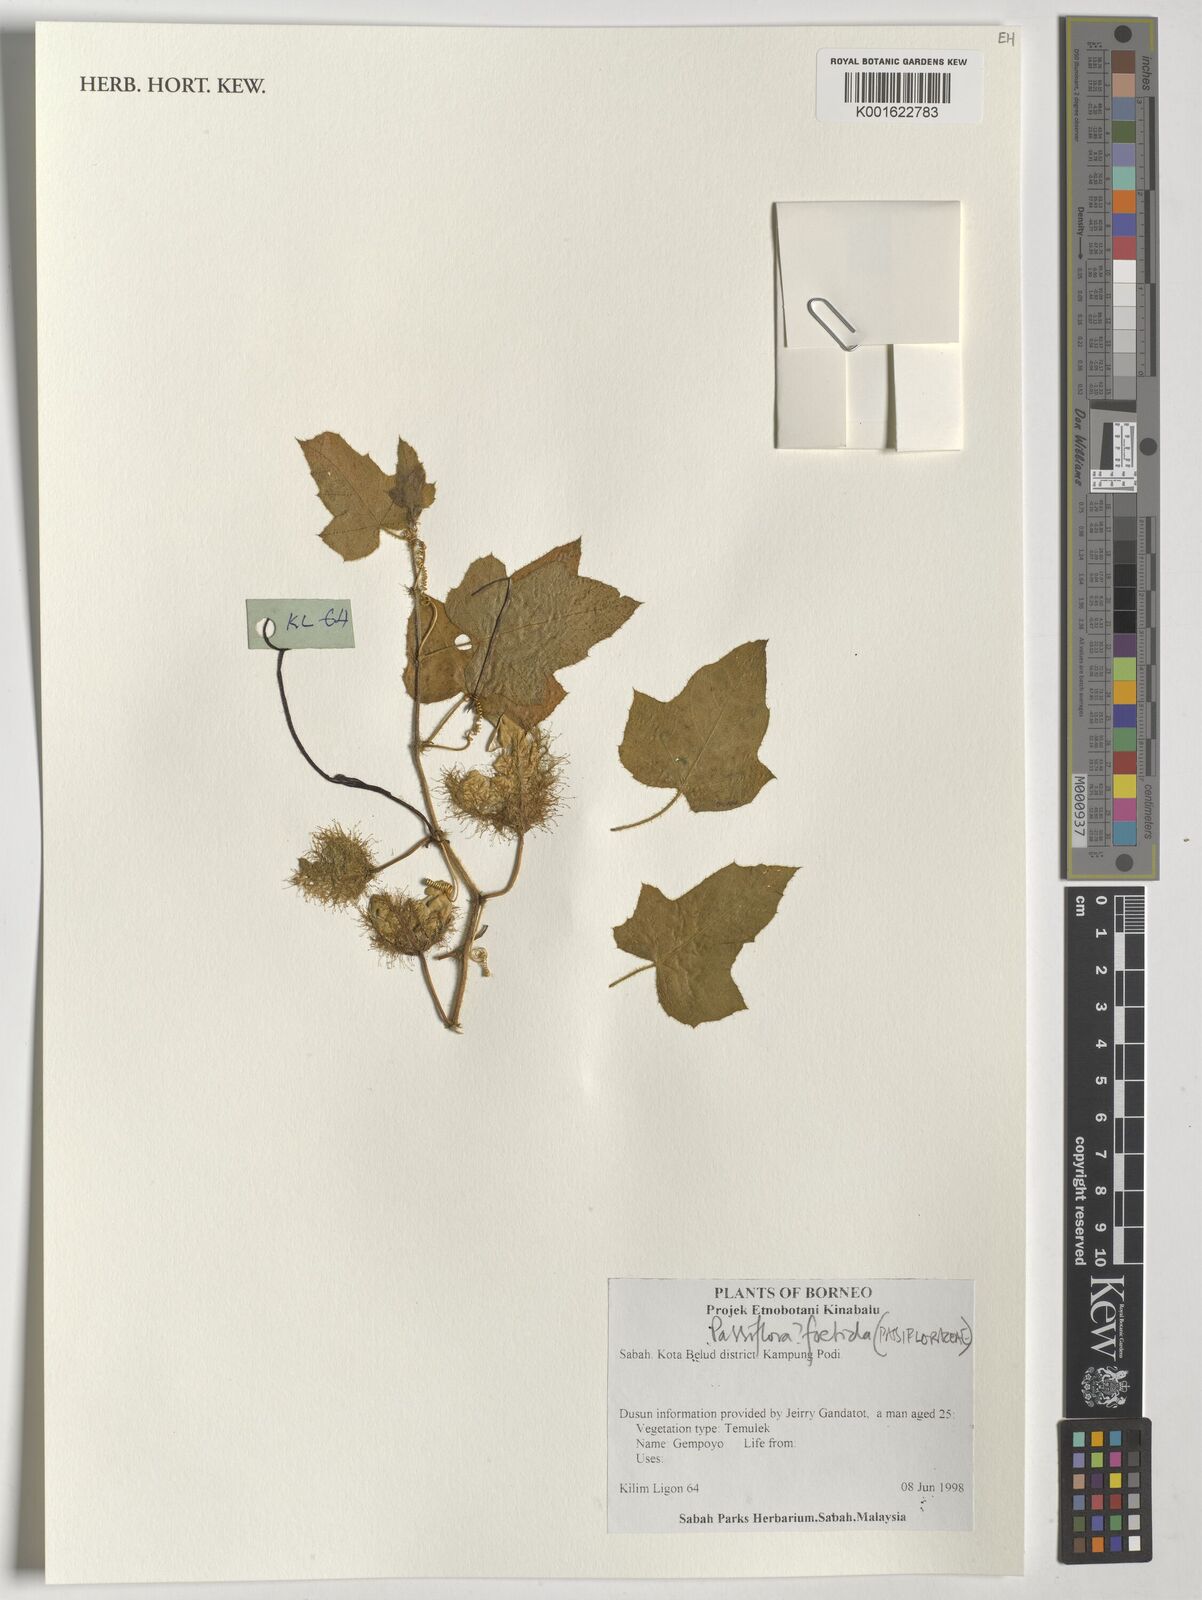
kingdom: Plantae
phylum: Tracheophyta
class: Magnoliopsida
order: Malpighiales
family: Passifloraceae
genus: Passiflora
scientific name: Passiflora foetida
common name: Fetid passionflower
